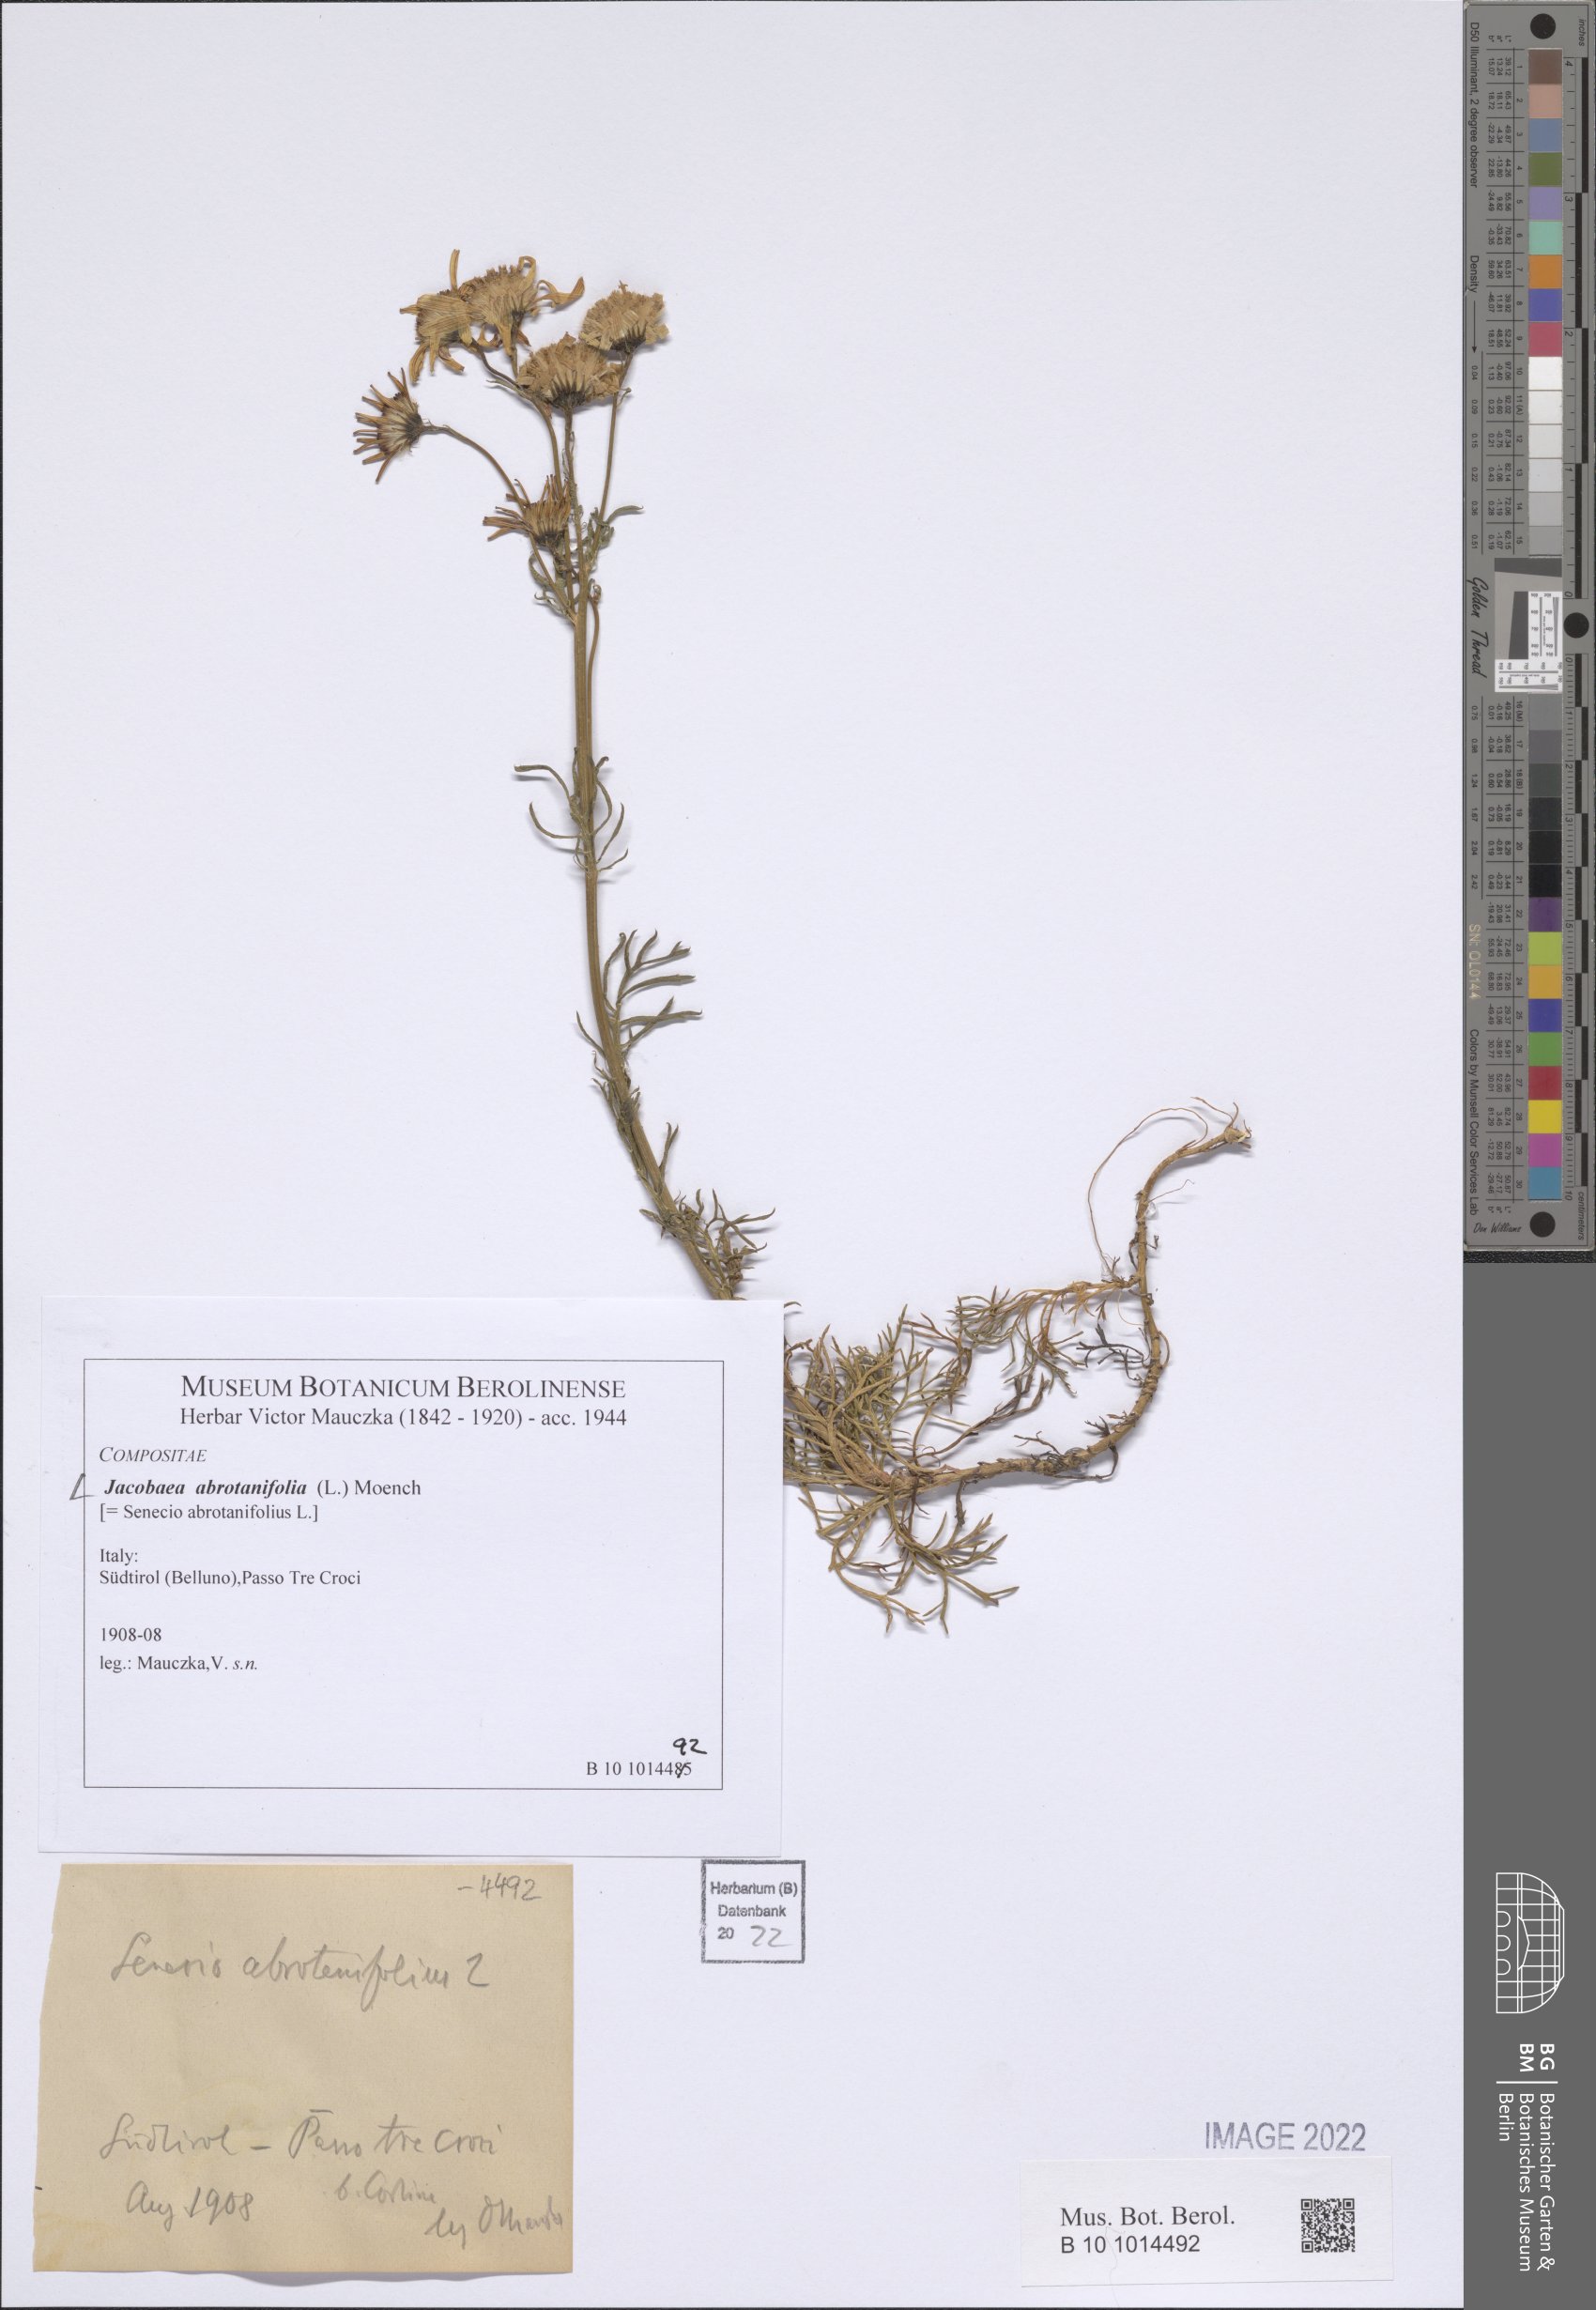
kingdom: Plantae
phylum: Tracheophyta
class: Magnoliopsida
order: Asterales
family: Asteraceae
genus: Jacobaea
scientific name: Jacobaea abrotanifolia
